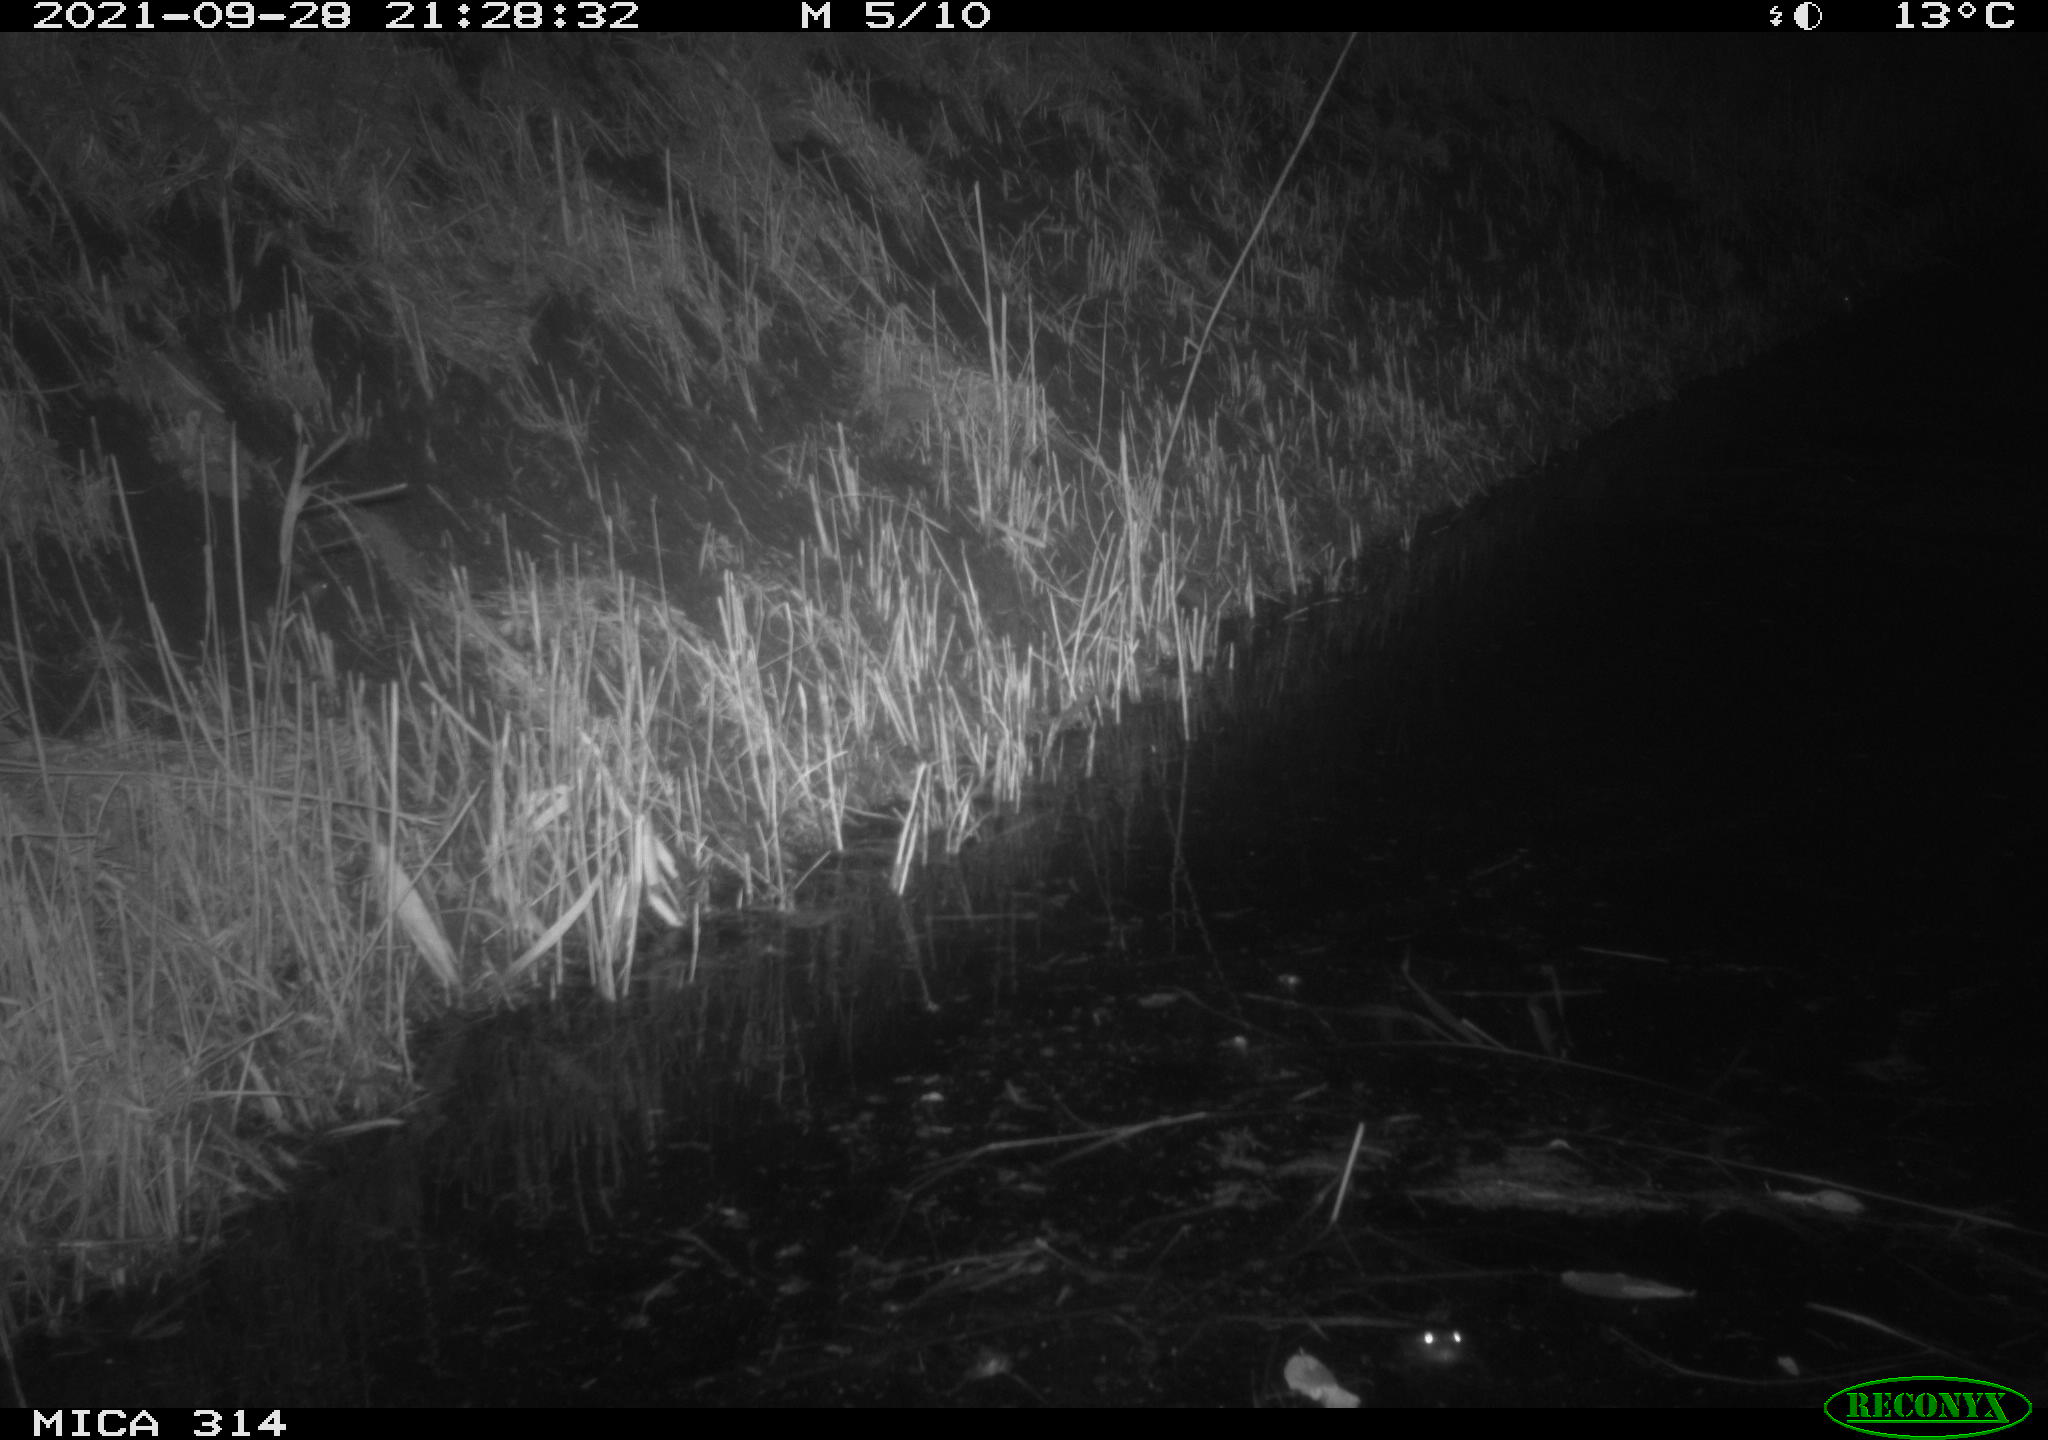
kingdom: Animalia
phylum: Chordata
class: Mammalia
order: Rodentia
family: Muridae
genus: Rattus
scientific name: Rattus norvegicus
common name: Brown rat
